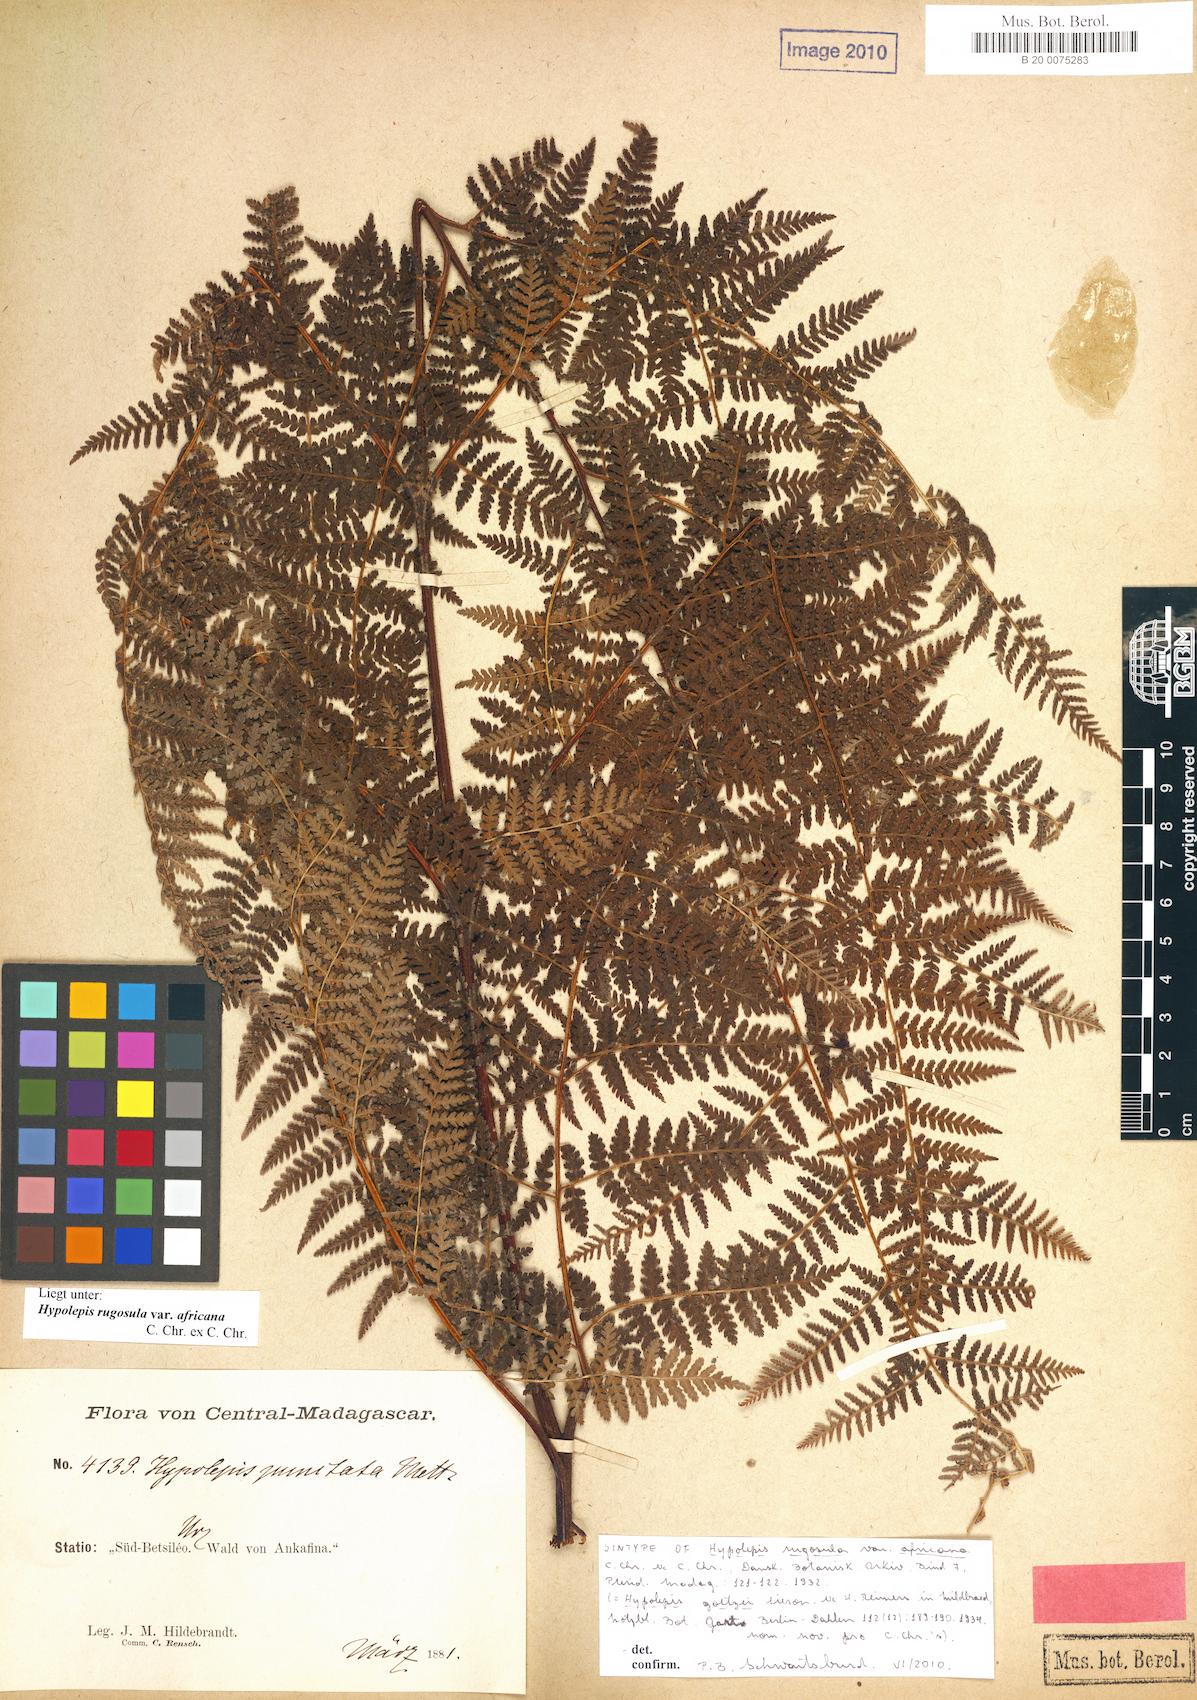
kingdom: Plantae
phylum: Tracheophyta
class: Polypodiopsida
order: Polypodiales
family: Dennstaedtiaceae
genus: Hypolepis
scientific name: Hypolepis rugosula
